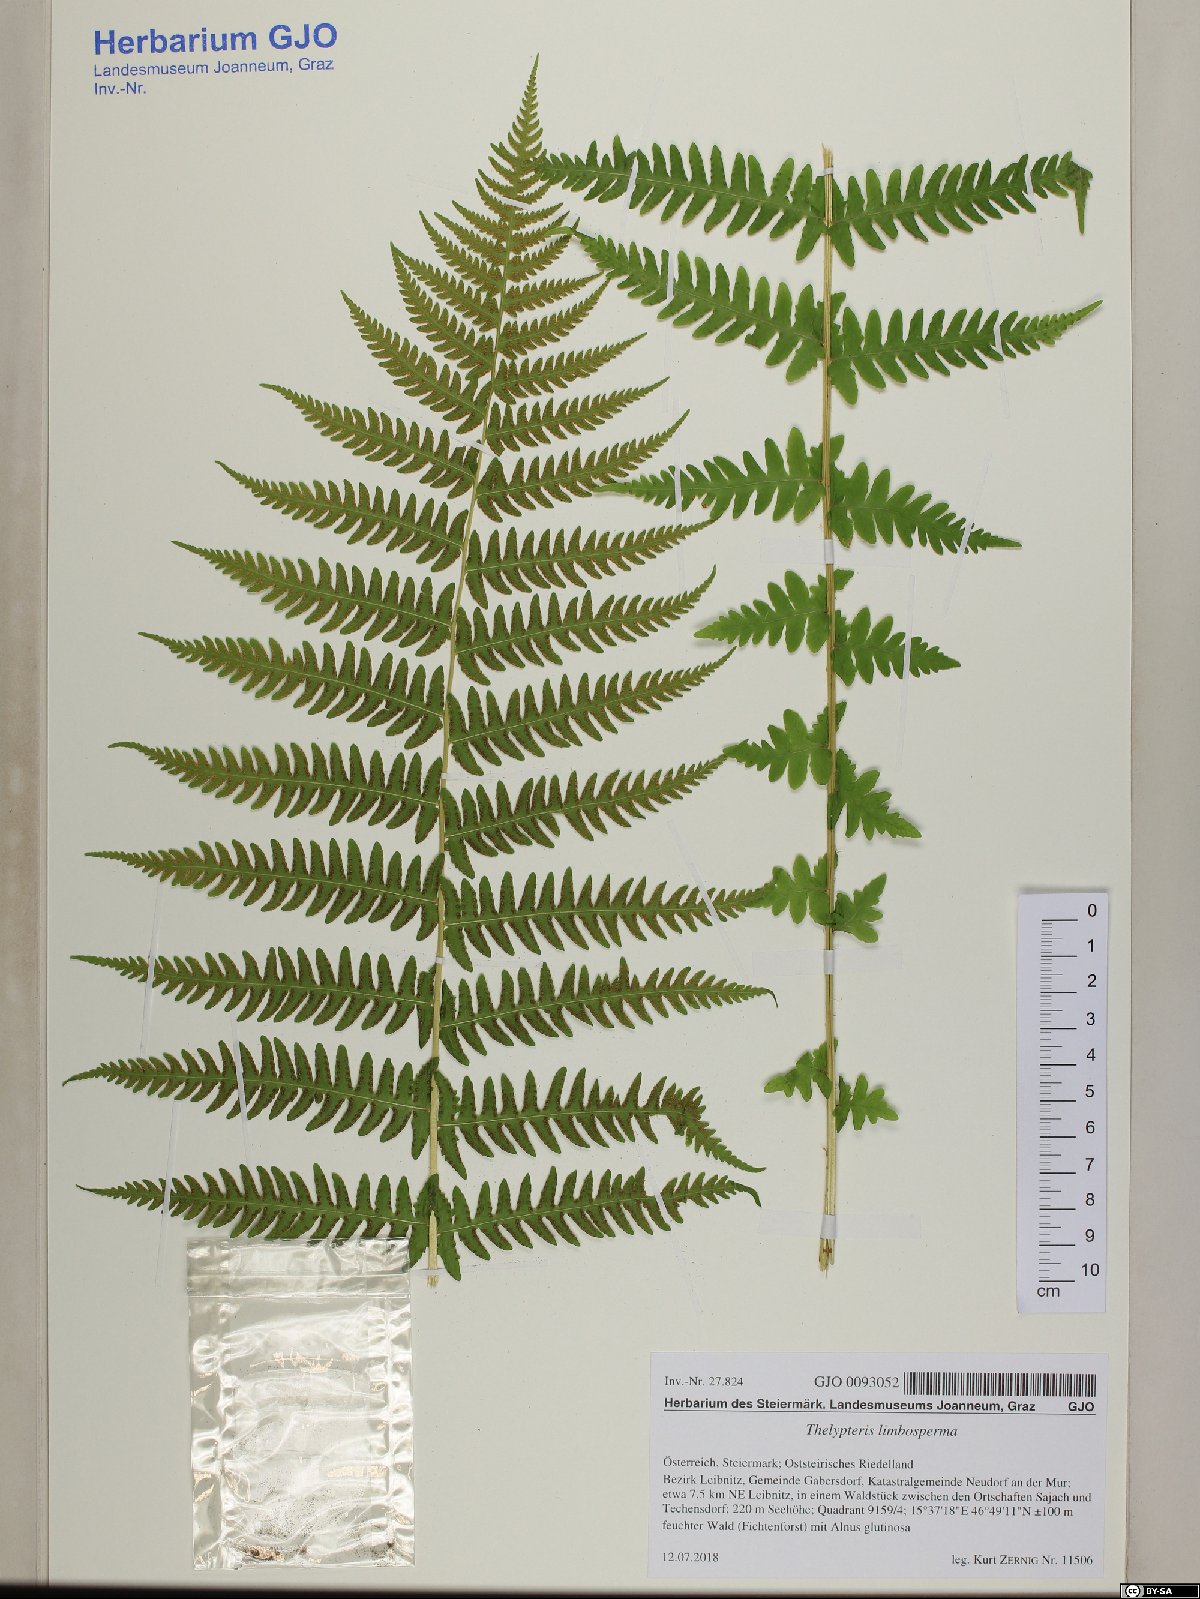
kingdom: Plantae
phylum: Tracheophyta
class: Polypodiopsida
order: Polypodiales
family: Thelypteridaceae
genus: Oreopteris
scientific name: Oreopteris limbosperma
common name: Lemon-scented fern
